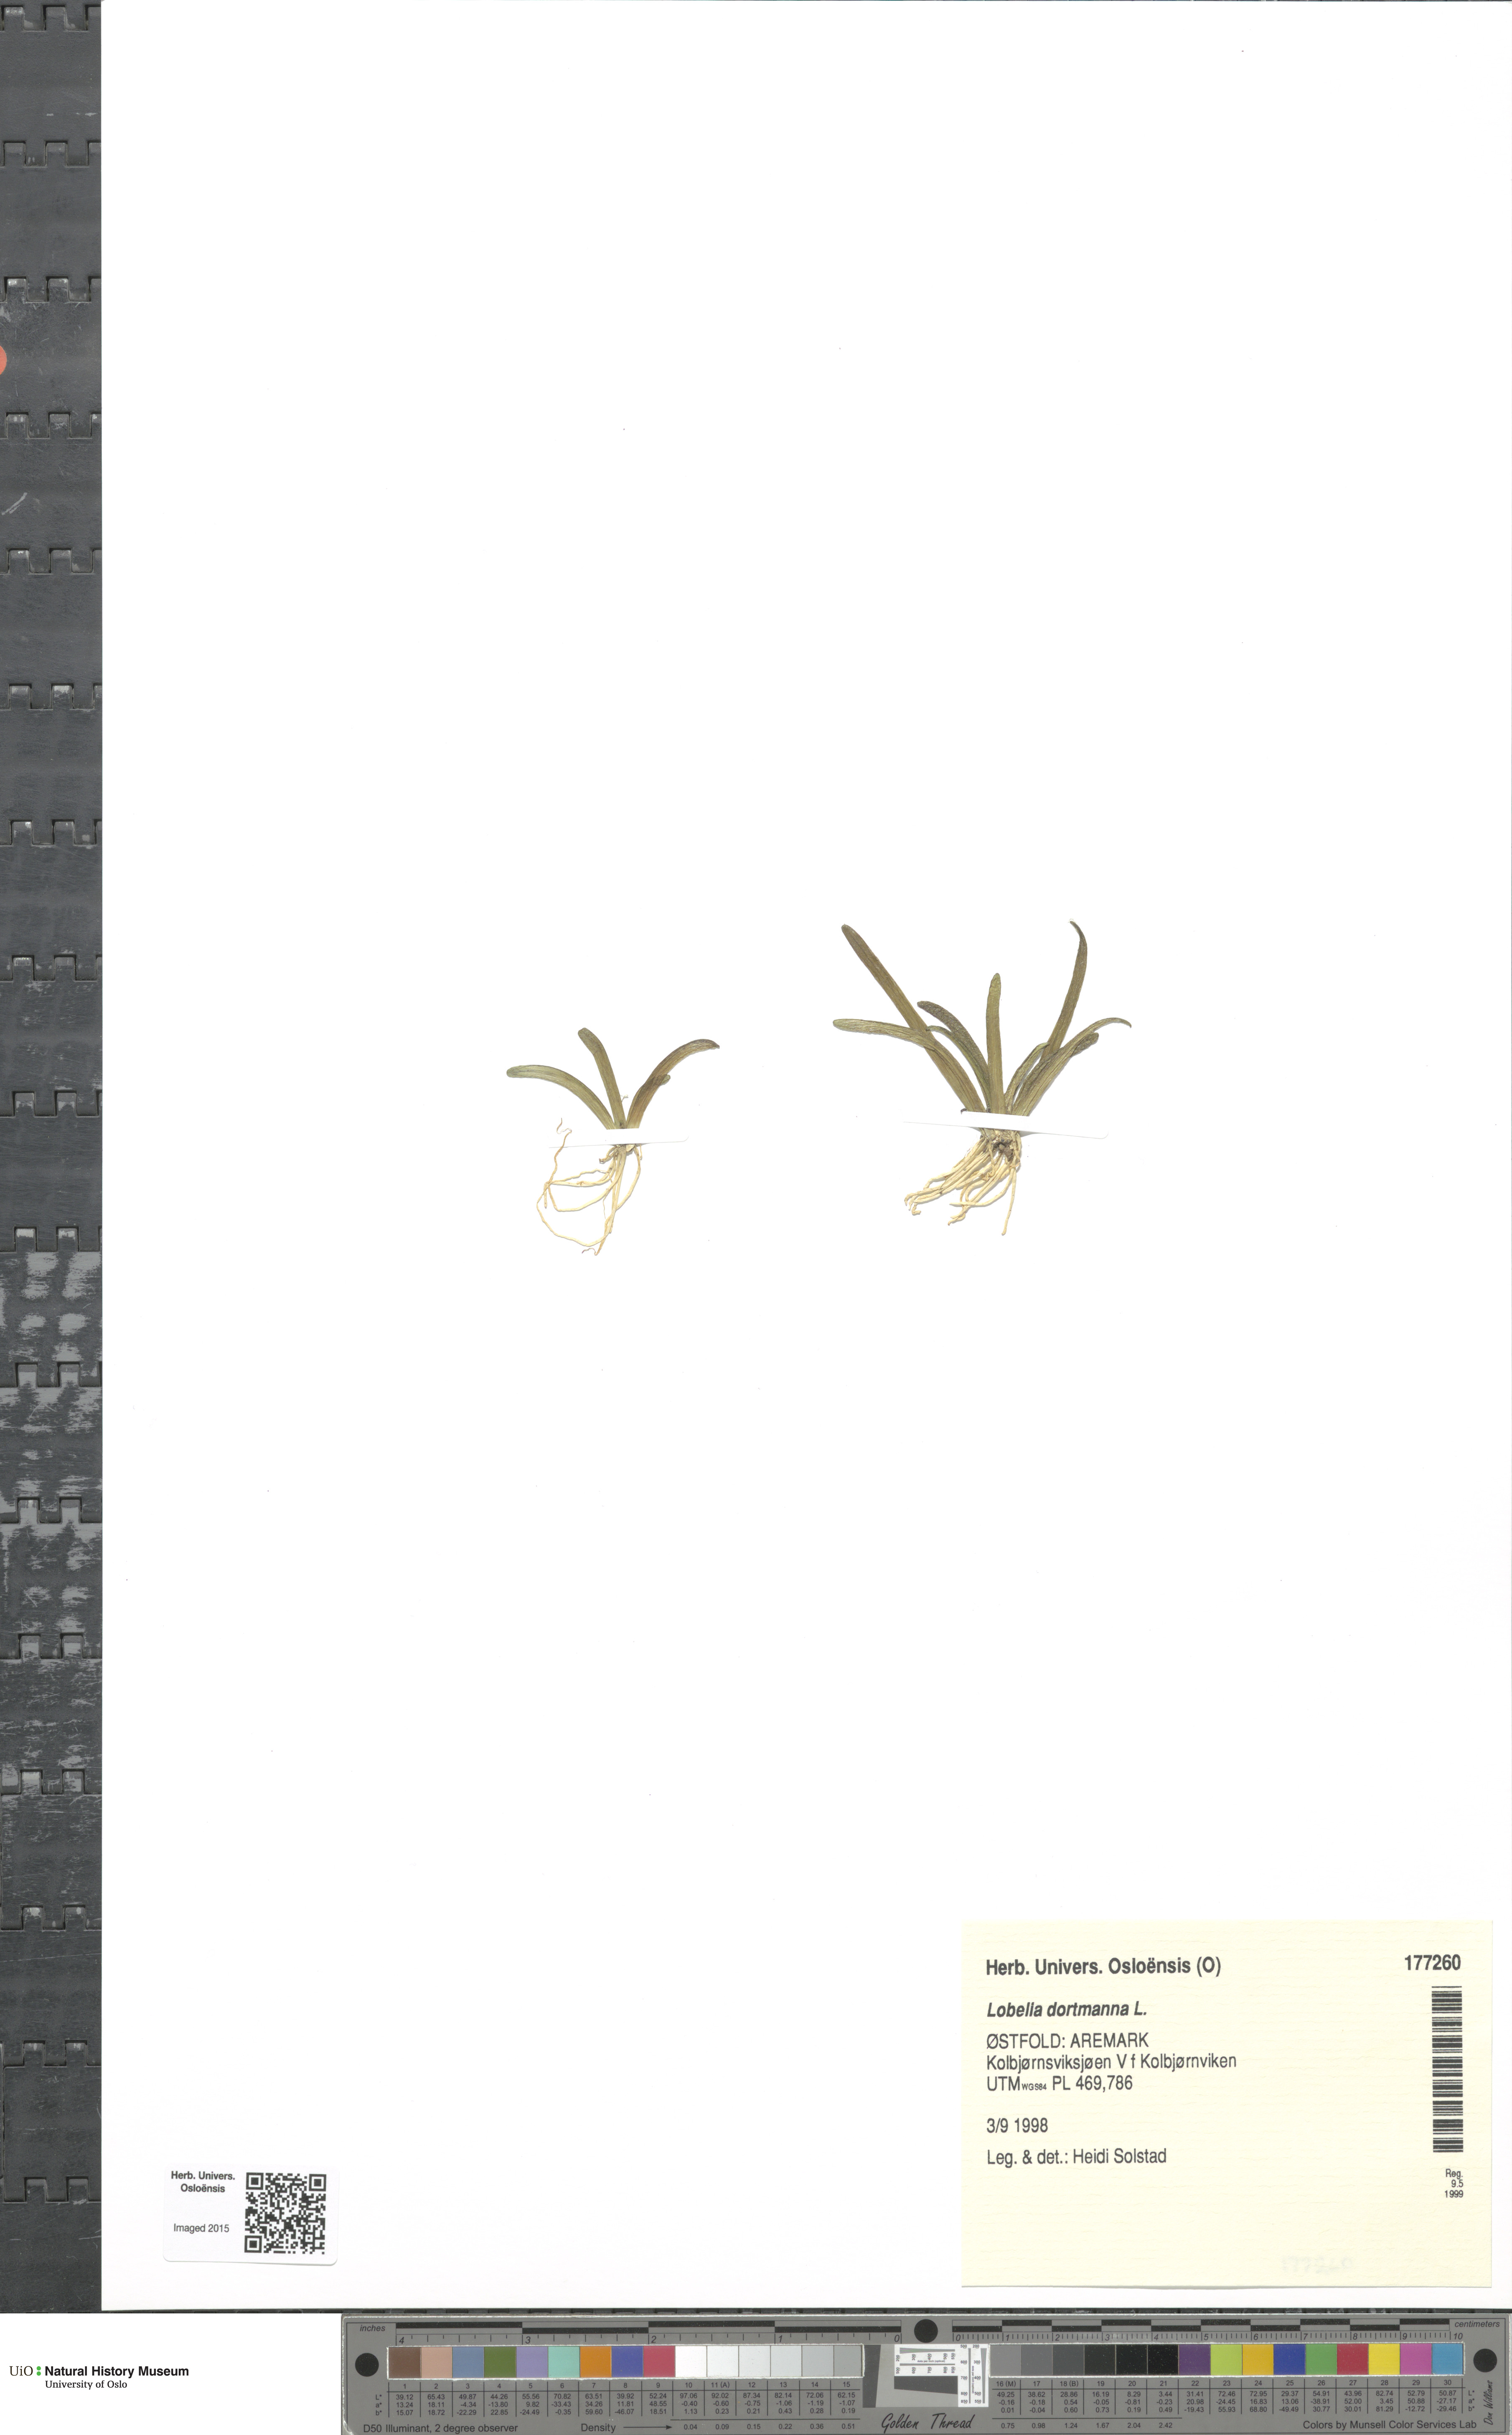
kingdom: Plantae
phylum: Tracheophyta
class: Magnoliopsida
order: Asterales
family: Campanulaceae
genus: Lobelia
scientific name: Lobelia dortmanna
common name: Water lobelia
